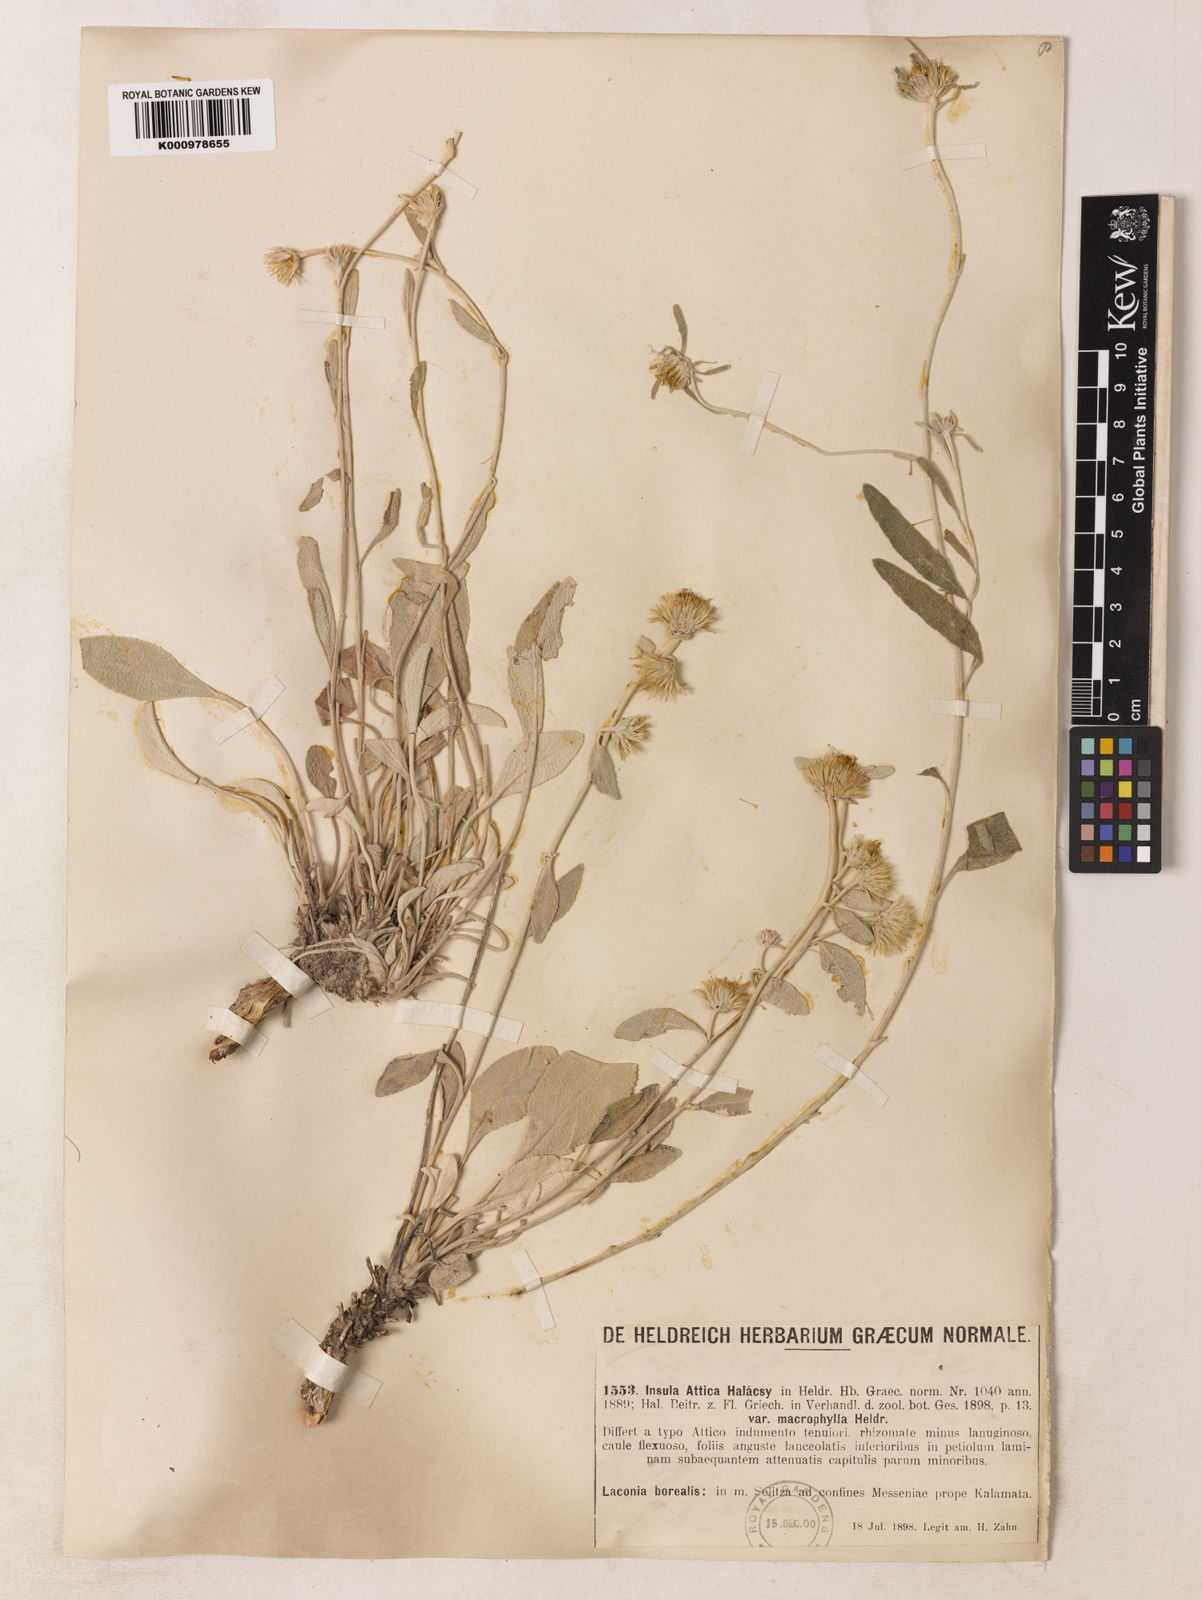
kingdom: Plantae
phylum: Tracheophyta
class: Magnoliopsida
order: Asterales
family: Asteraceae
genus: Inula
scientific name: Inula
